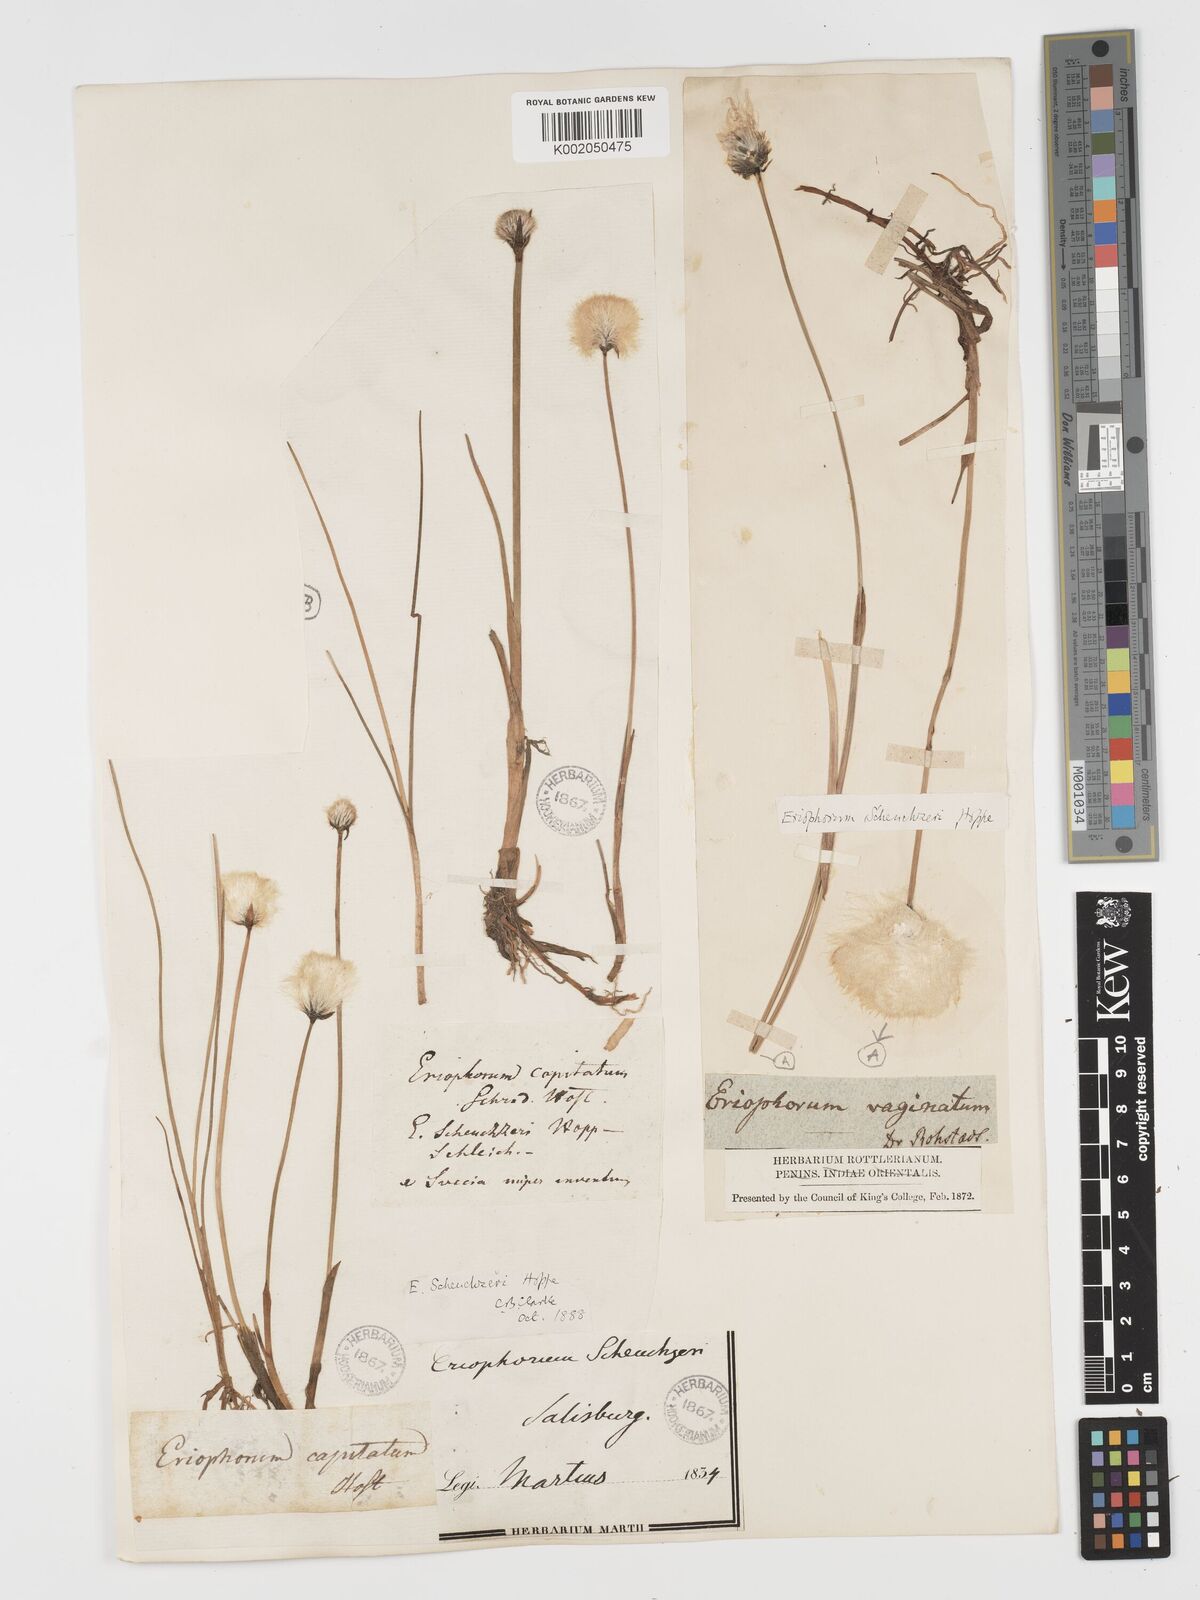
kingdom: Plantae
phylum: Tracheophyta
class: Liliopsida
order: Poales
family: Cyperaceae
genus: Eriophorum
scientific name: Eriophorum scheuchzeri
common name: Scheuchzer's cottongrass
